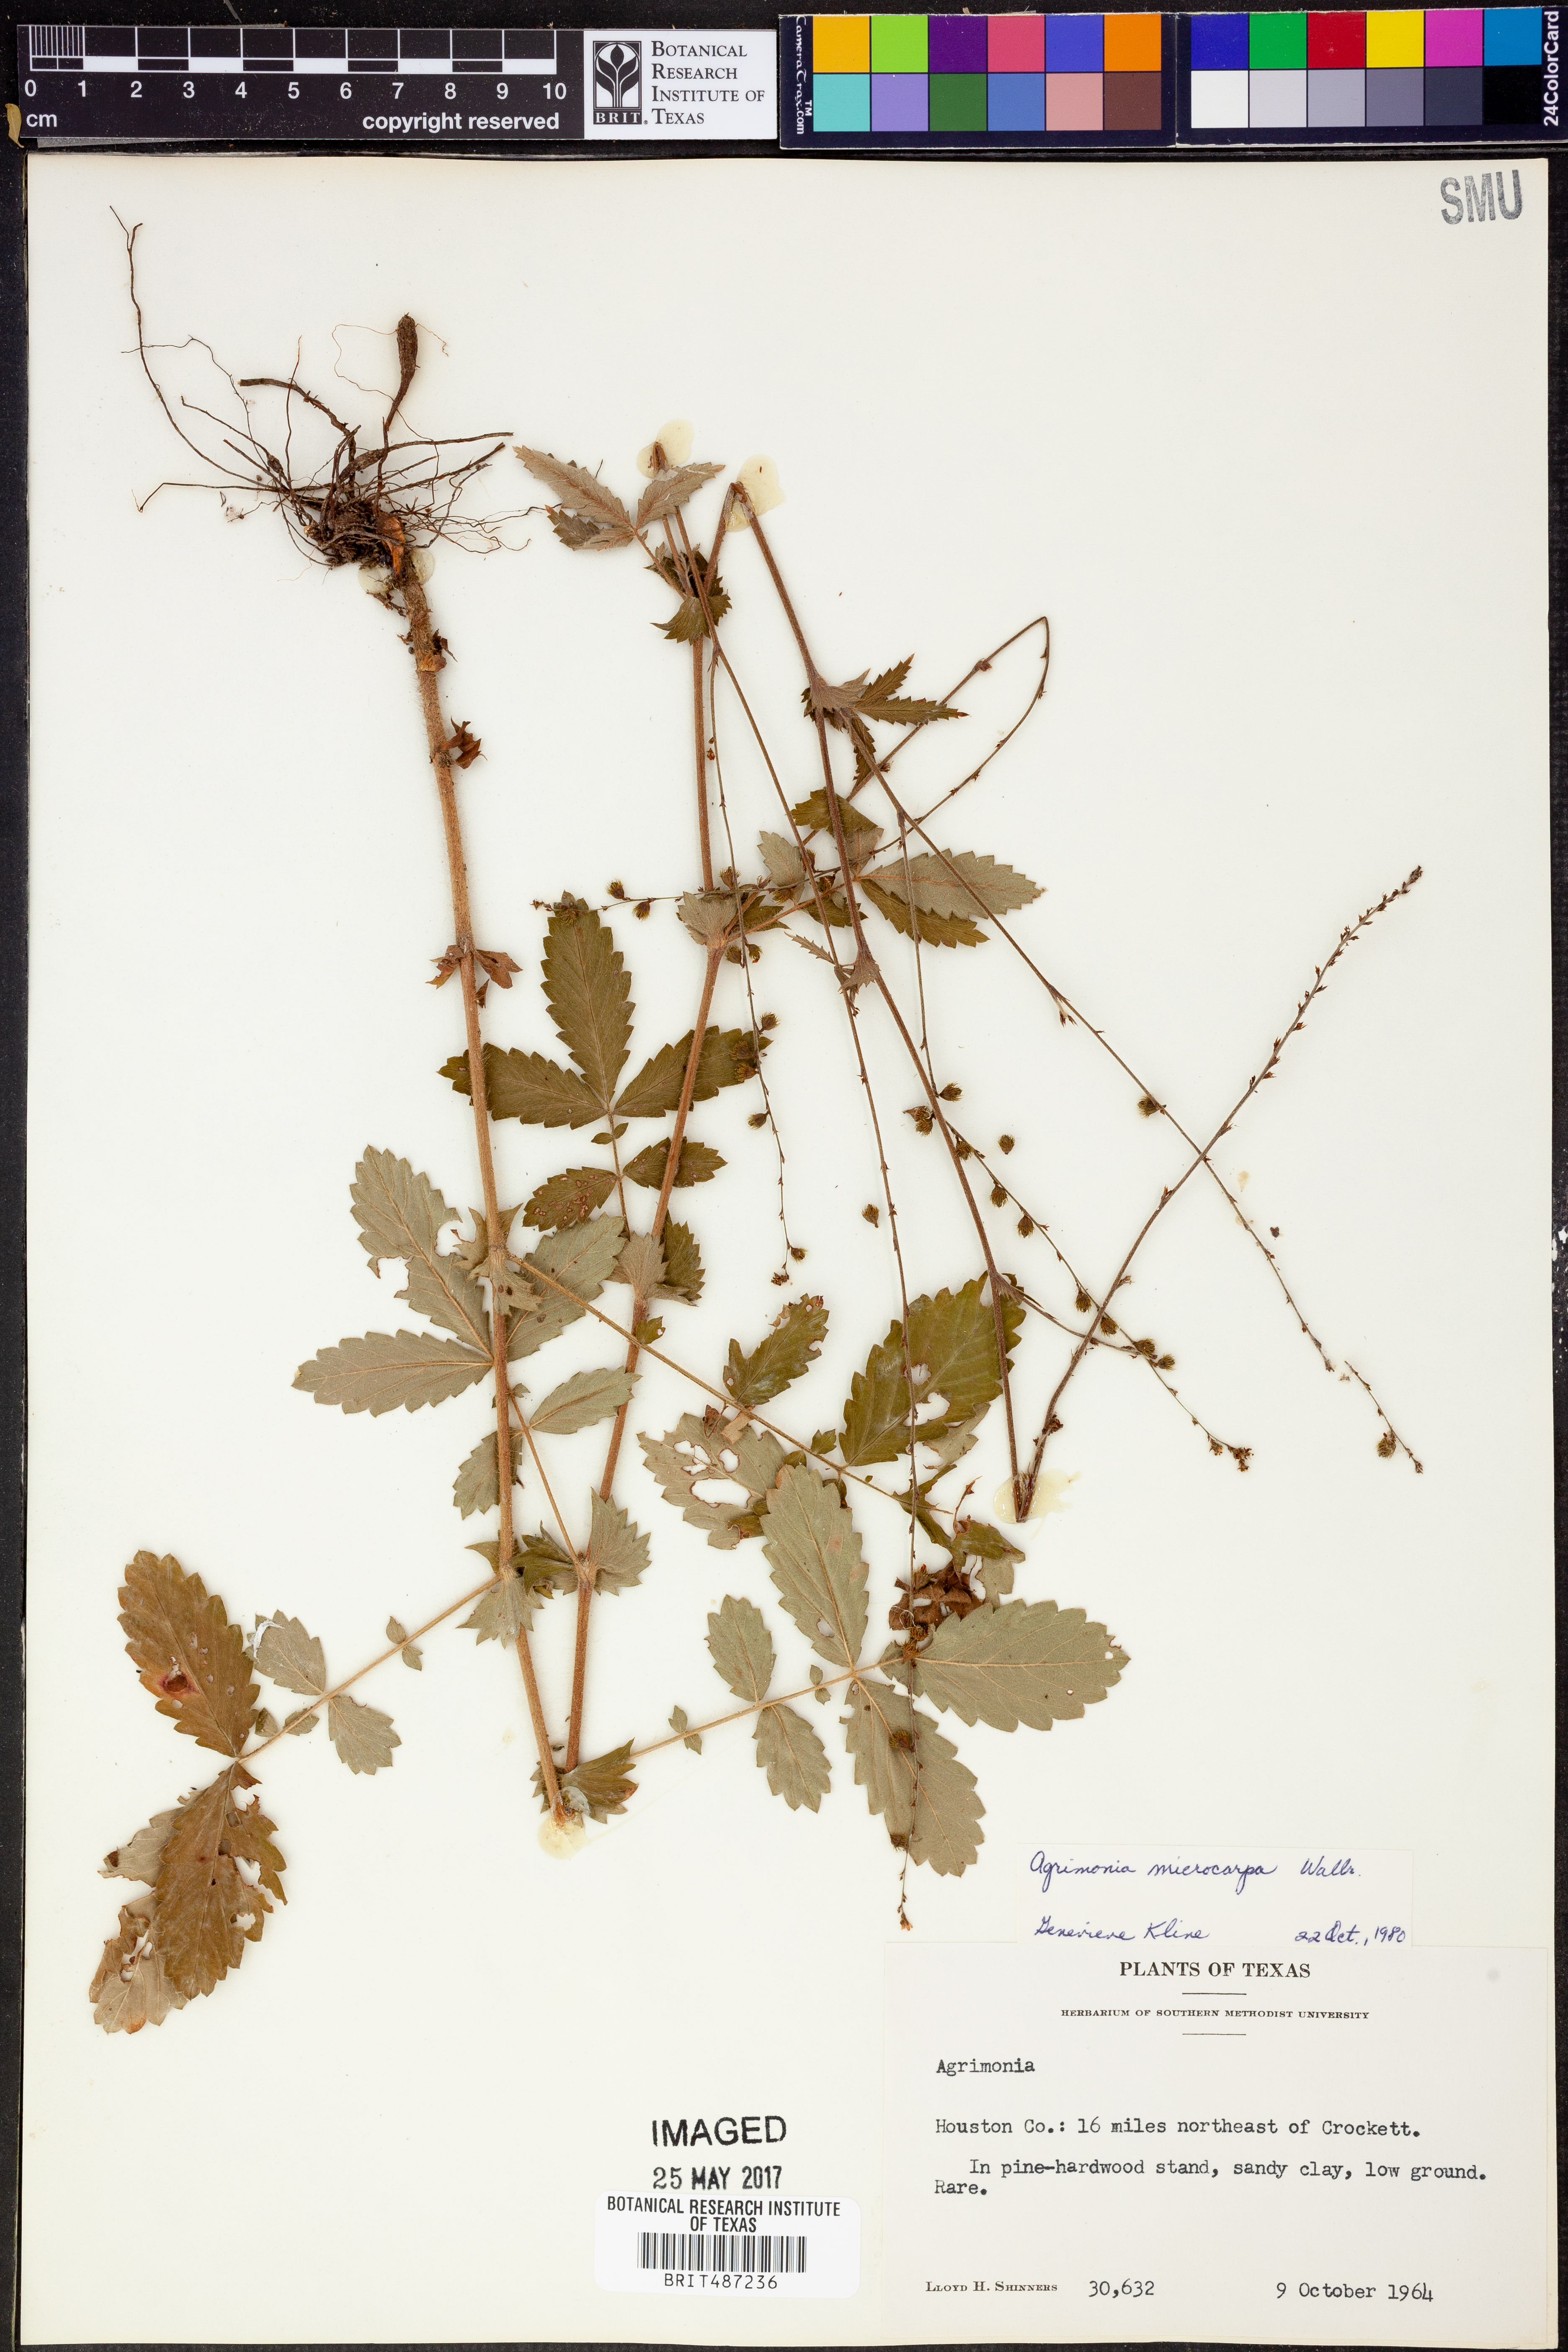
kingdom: Plantae
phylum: Tracheophyta
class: Magnoliopsida
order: Rosales
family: Rosaceae
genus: Agrimonia
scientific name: Agrimonia microcarpa
